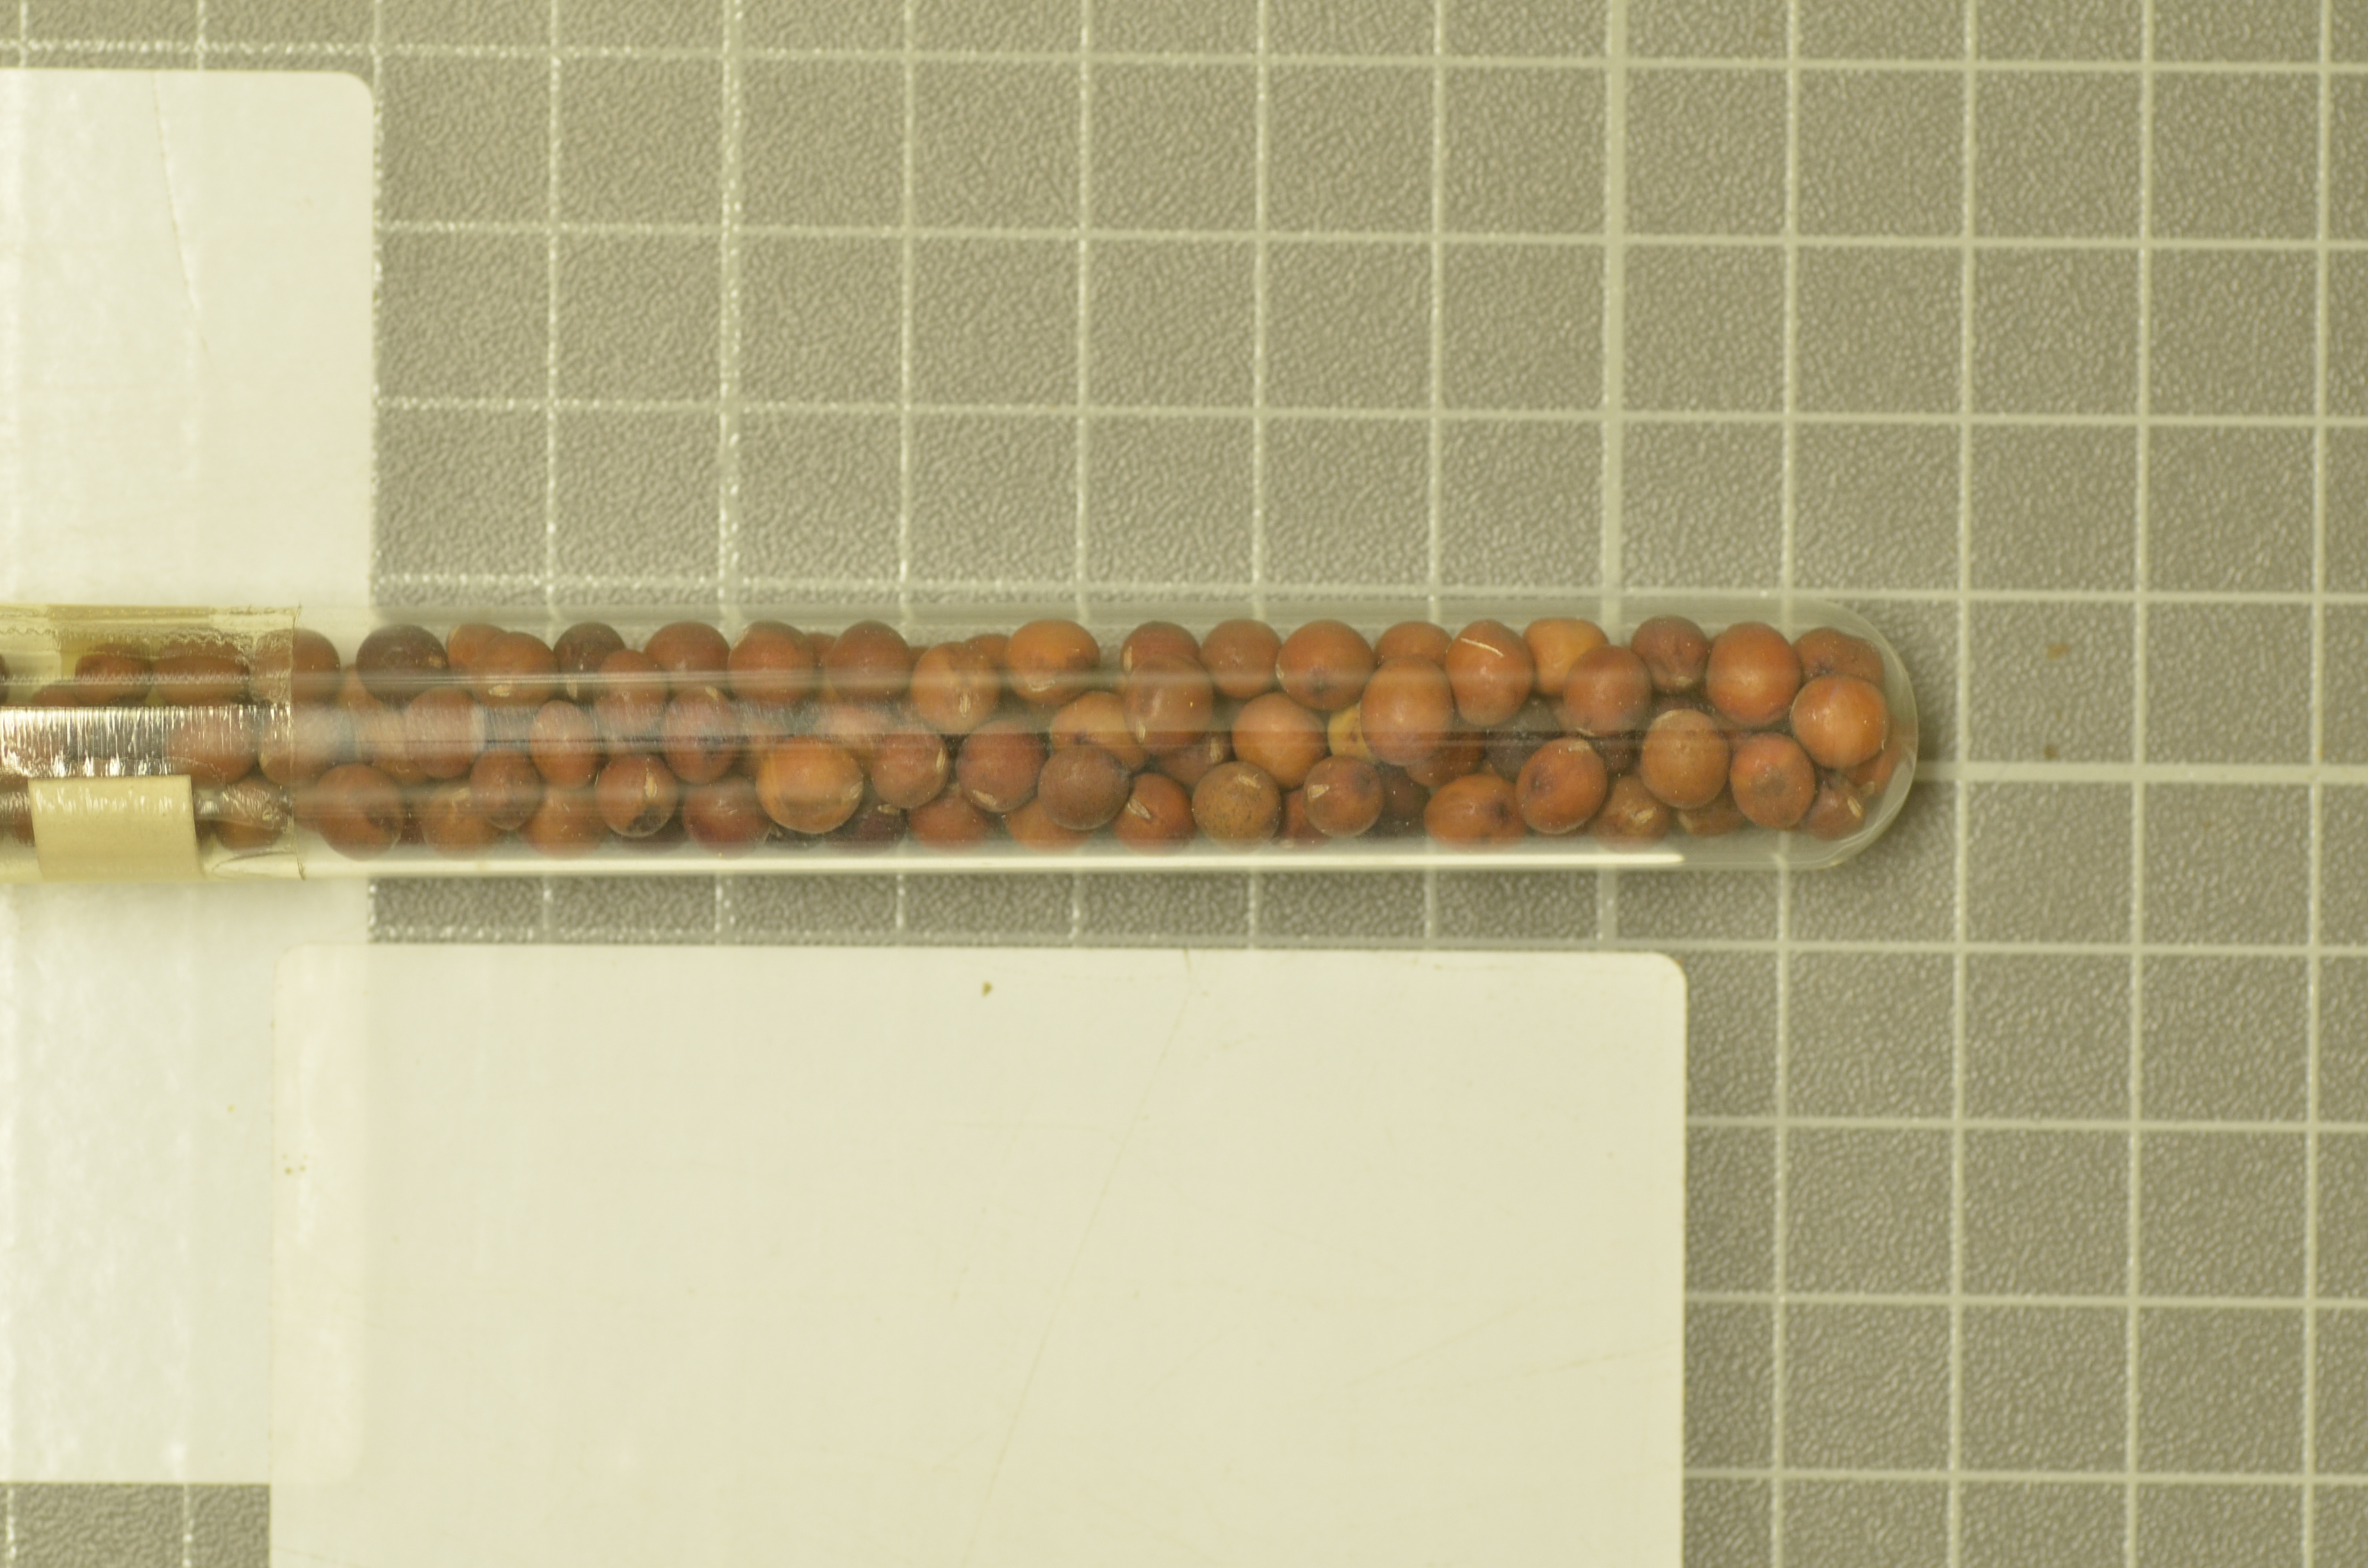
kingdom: Plantae
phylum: Tracheophyta
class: Magnoliopsida
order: Fabales
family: Fabaceae
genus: Lathyrus
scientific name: Lathyrus oleraceus
